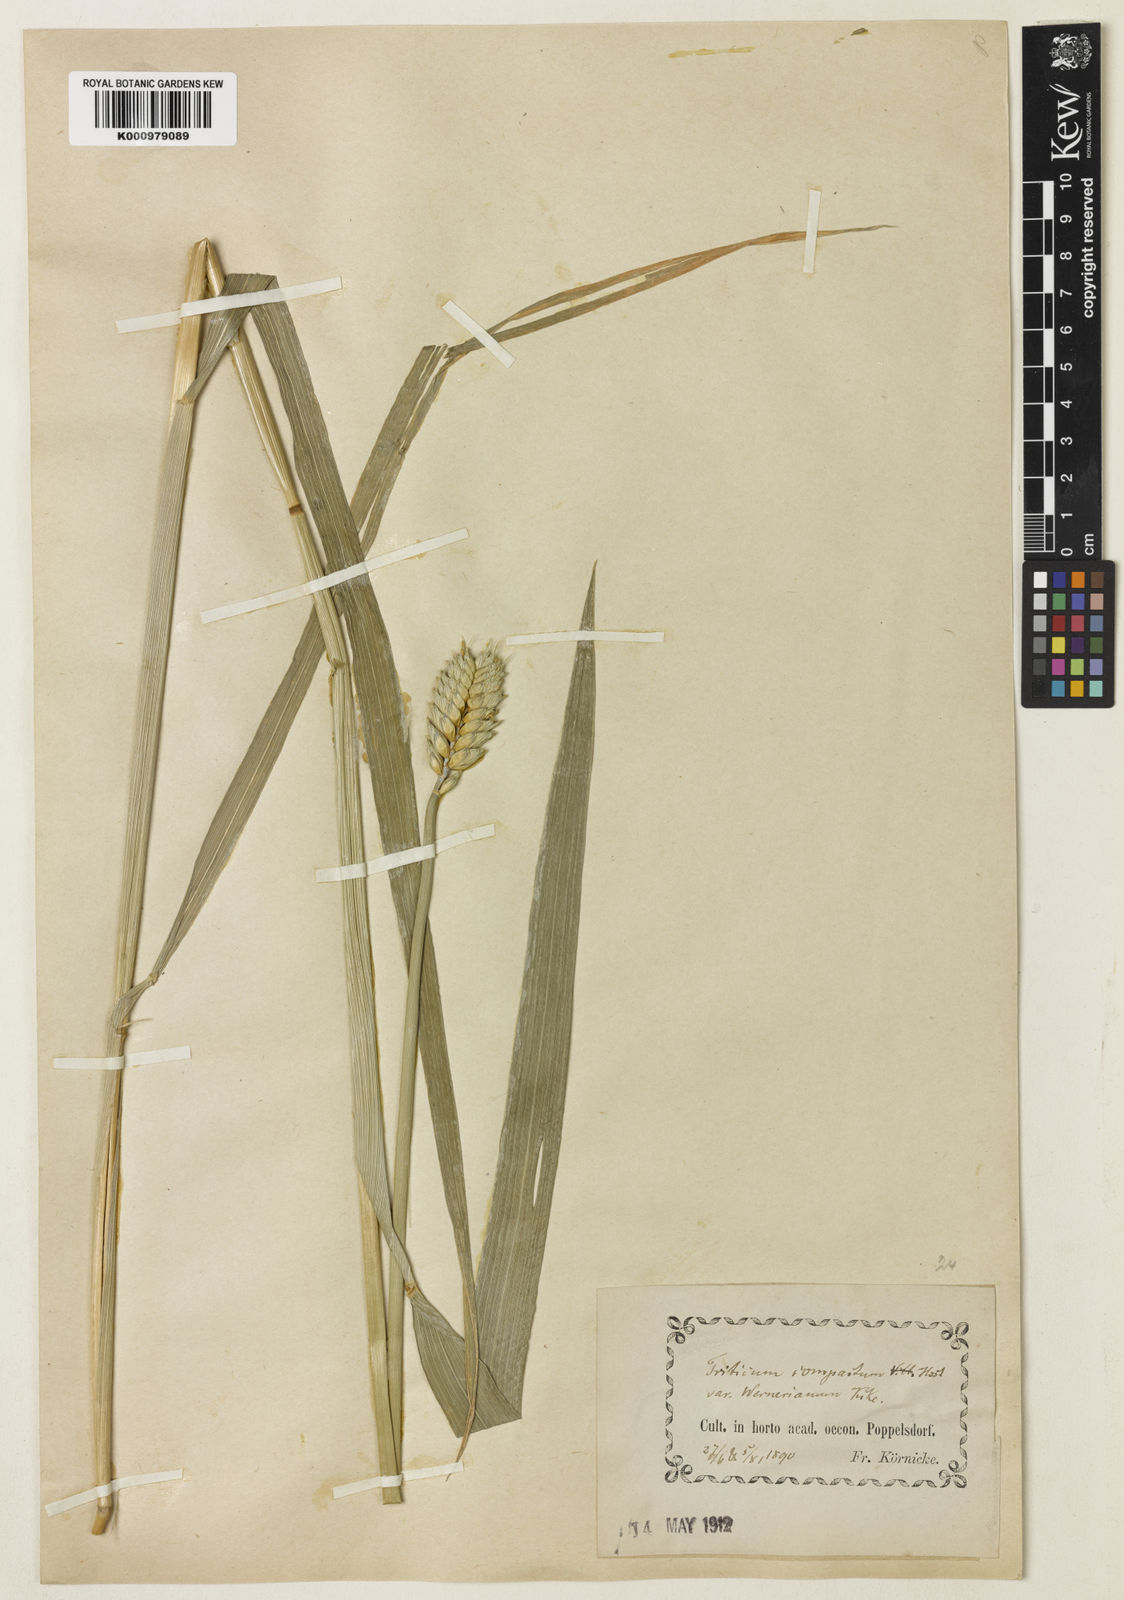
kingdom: Plantae
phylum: Tracheophyta
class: Liliopsida
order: Poales
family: Poaceae
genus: Triticum
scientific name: Triticum aestivum
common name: Common wheat
